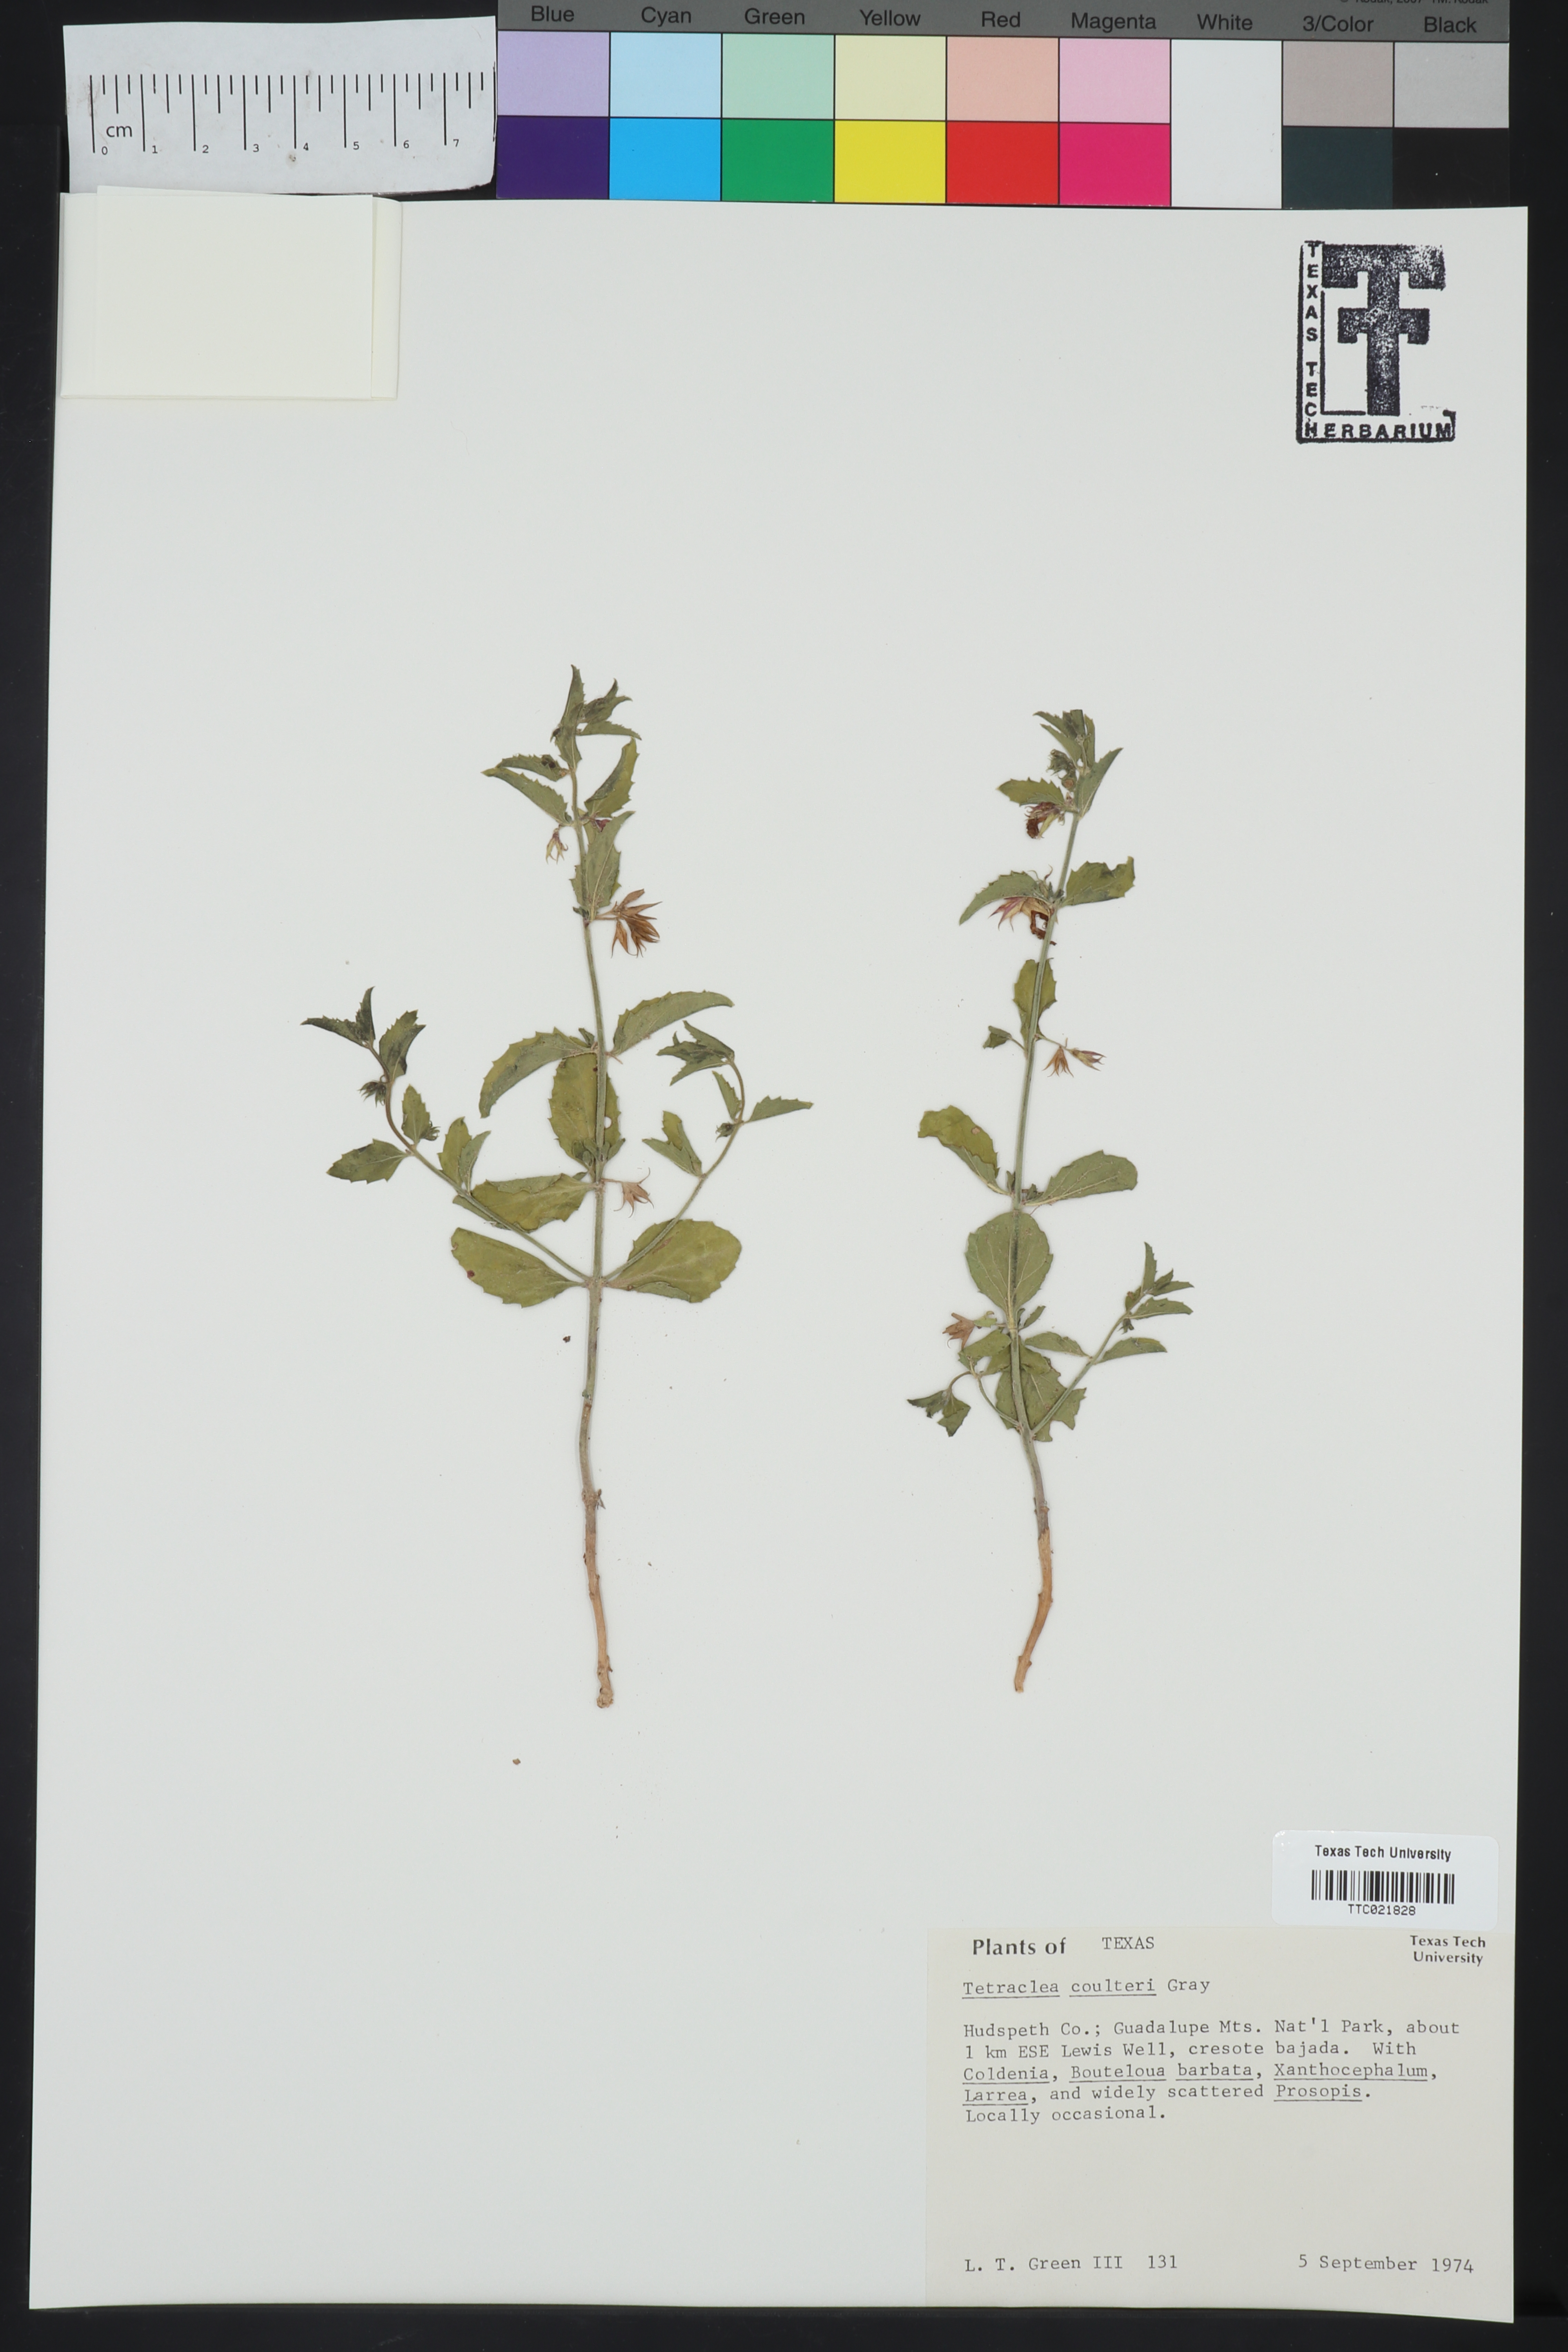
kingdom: Plantae
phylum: Tracheophyta
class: Magnoliopsida
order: Lamiales
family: Lamiaceae
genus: Tetraclea
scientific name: Tetraclea coulteri
